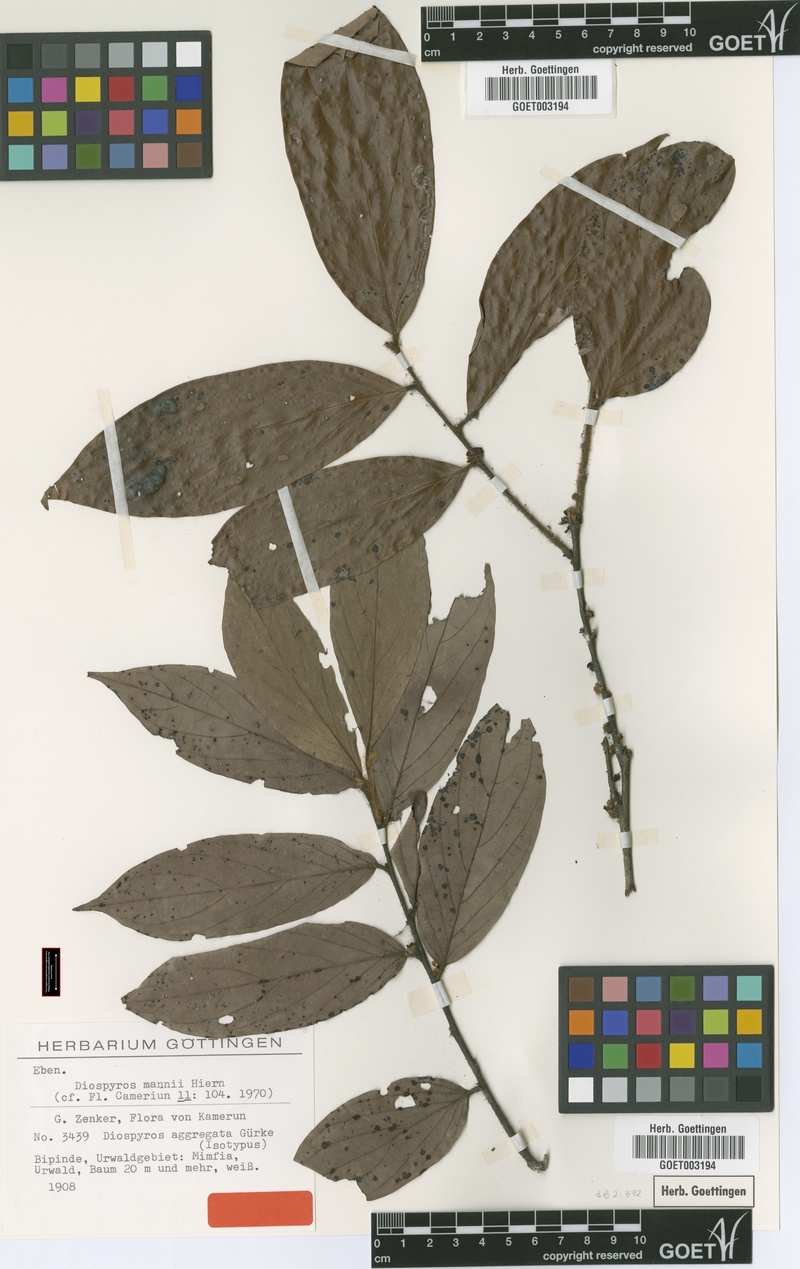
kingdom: Plantae
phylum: Tracheophyta
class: Magnoliopsida
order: Ericales
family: Ebenaceae
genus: Diospyros
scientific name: Diospyros mannii
